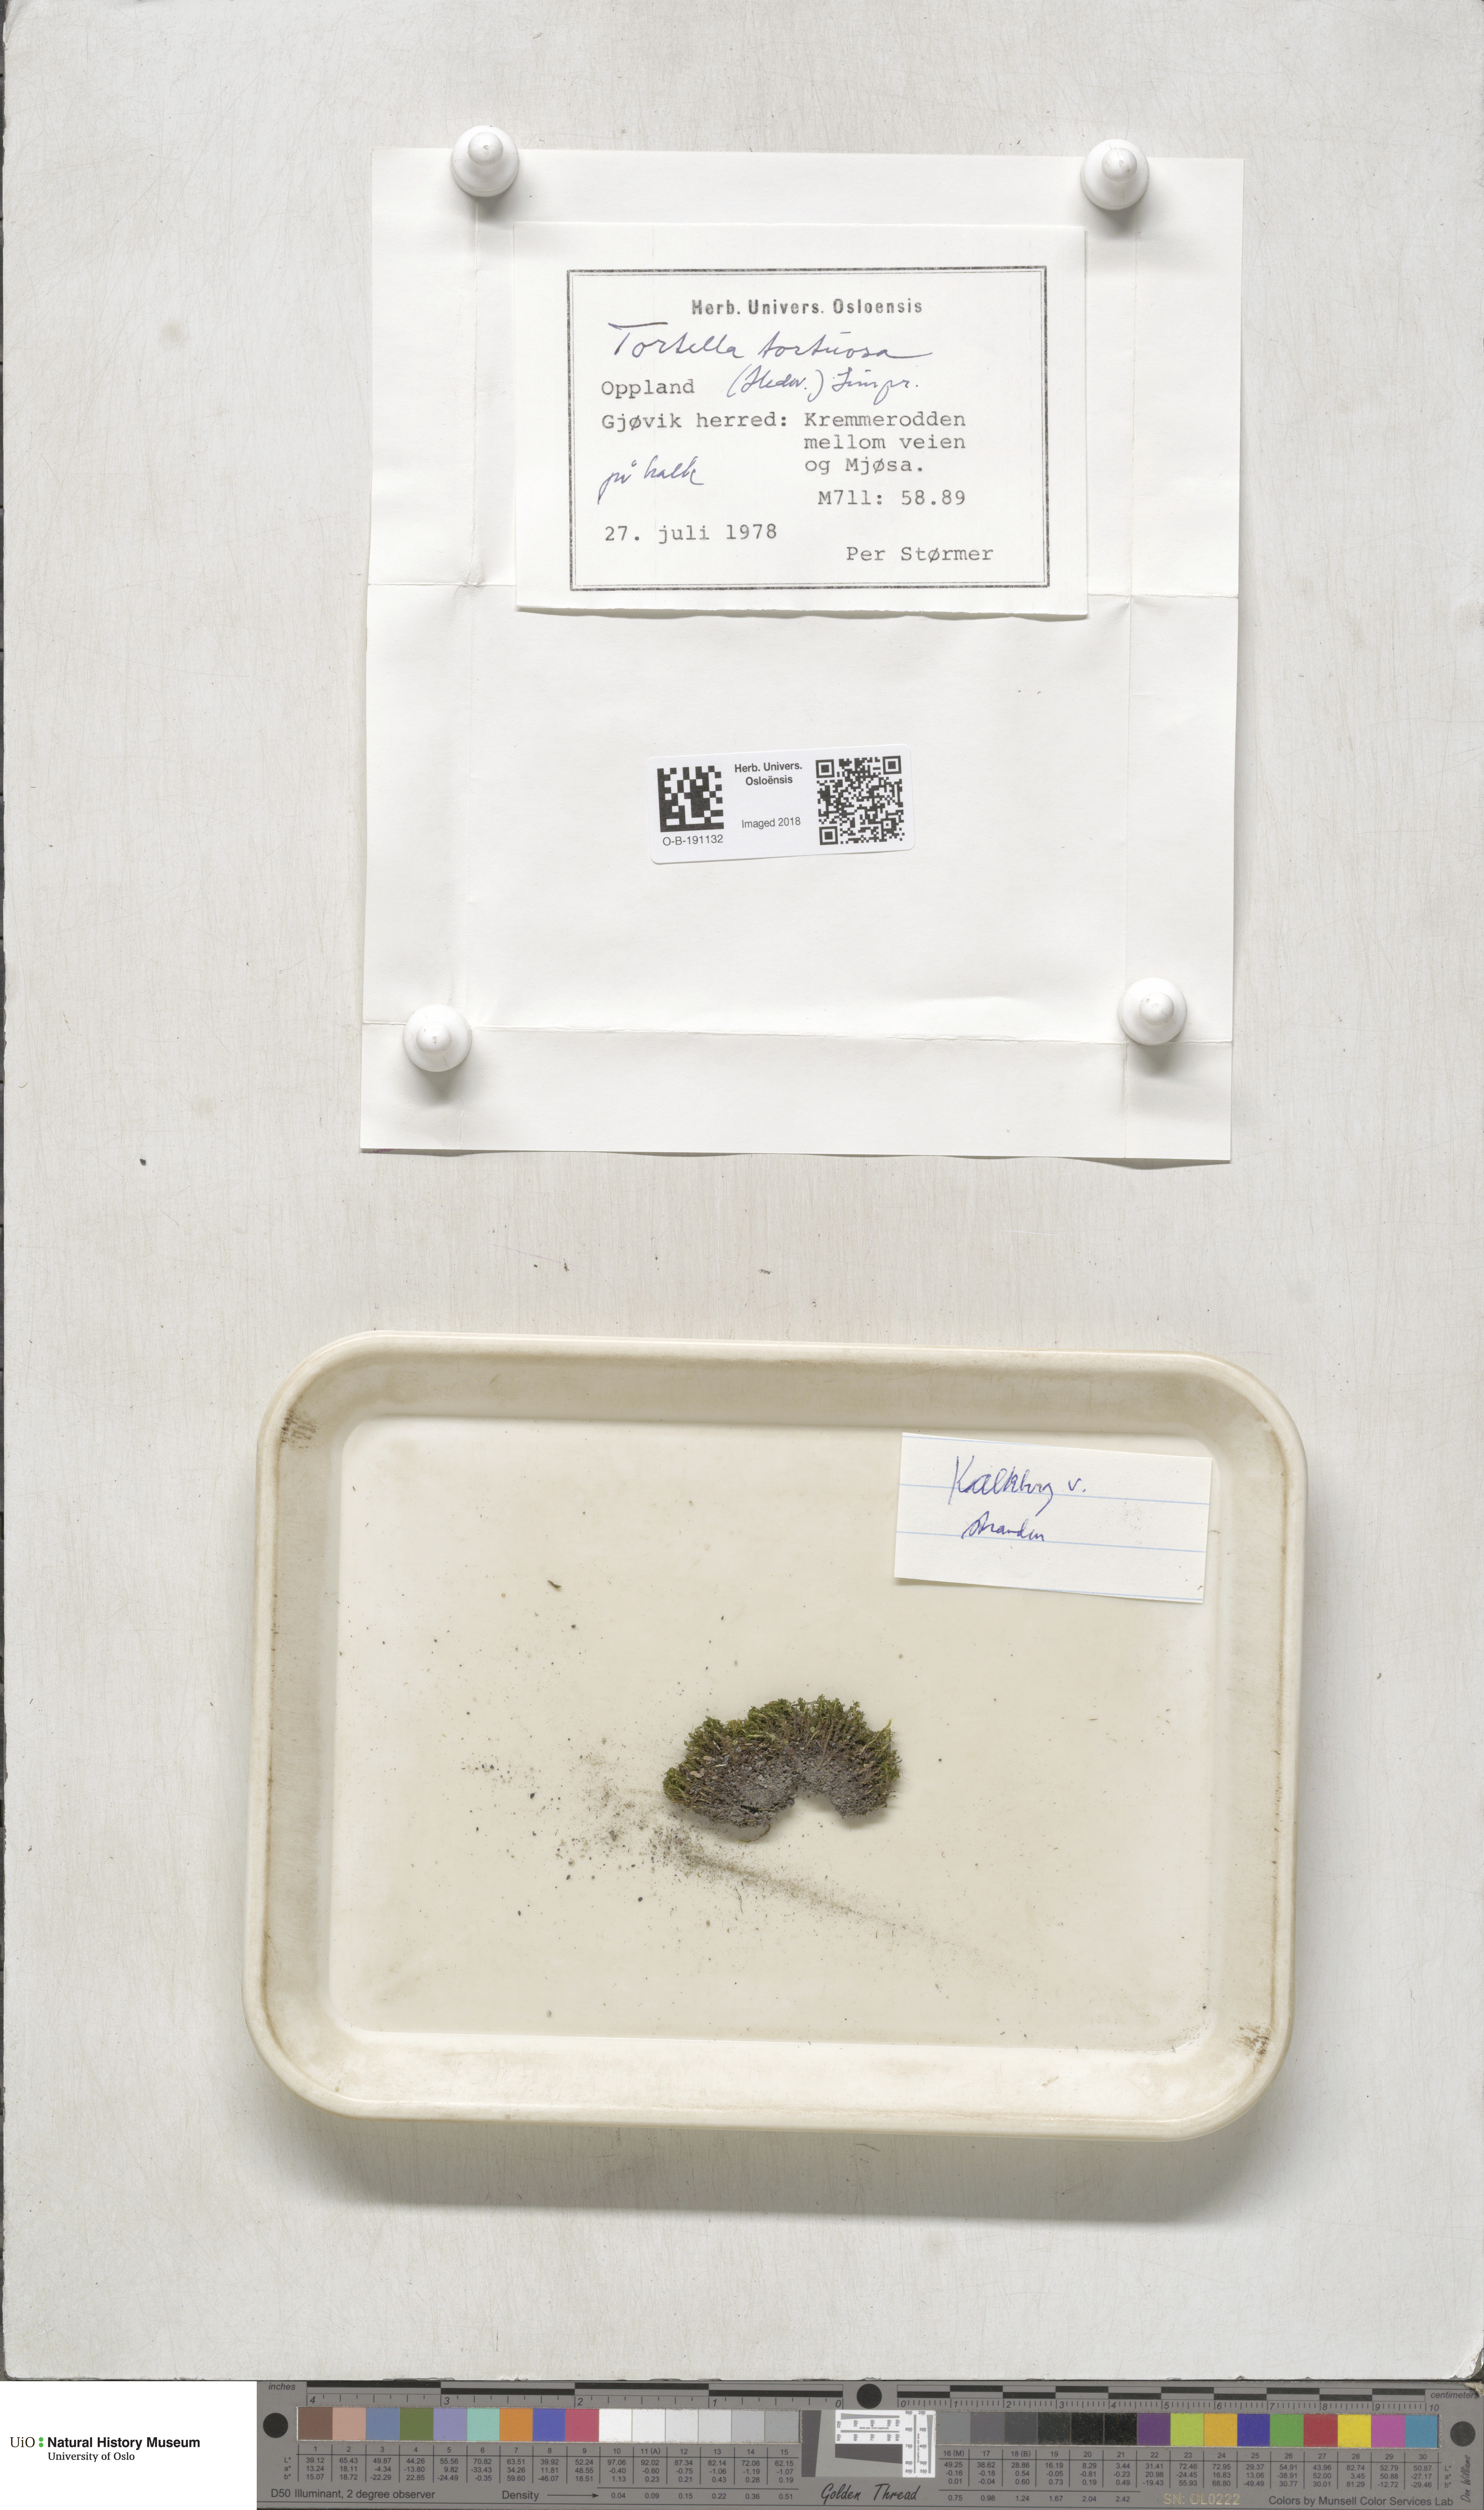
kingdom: Plantae
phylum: Bryophyta
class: Bryopsida
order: Pottiales
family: Pottiaceae
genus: Tortella
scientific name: Tortella tortuosa
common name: Frizzled crisp moss
